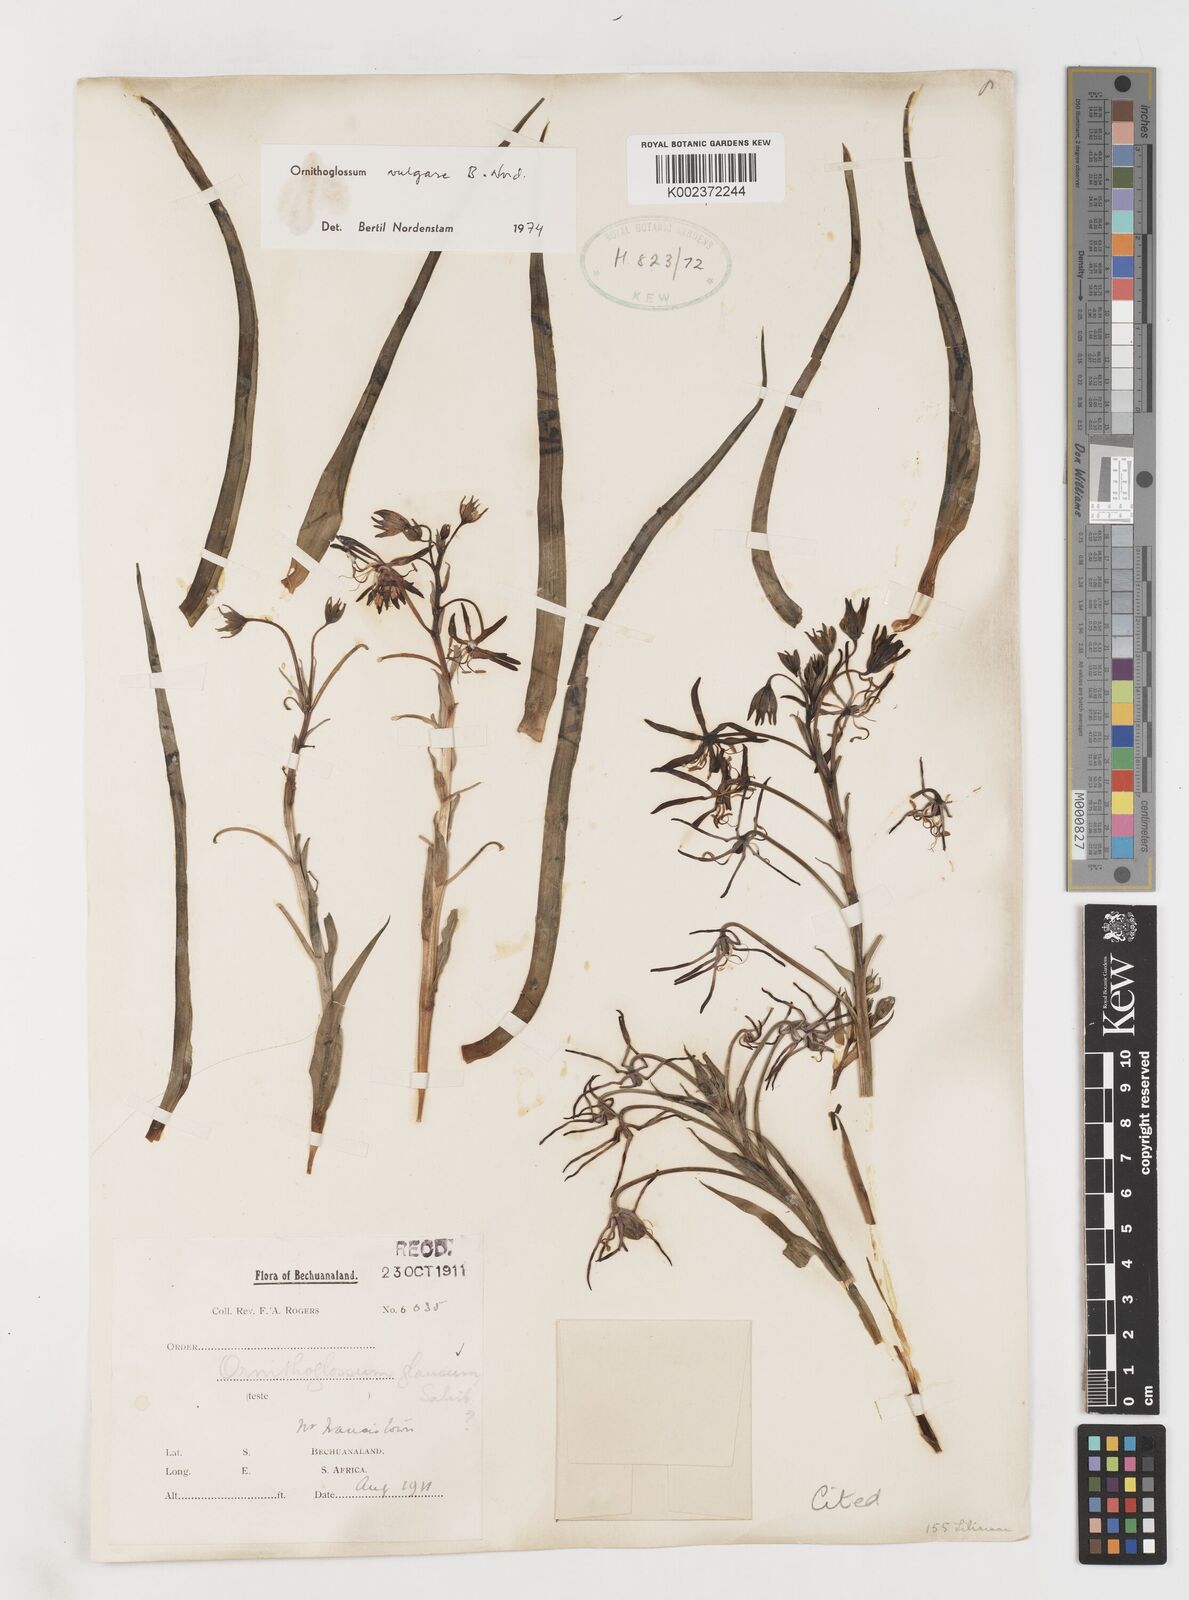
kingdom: Plantae
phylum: Tracheophyta
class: Liliopsida
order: Liliales
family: Colchicaceae
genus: Ornithoglossum
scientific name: Ornithoglossum vulgare
